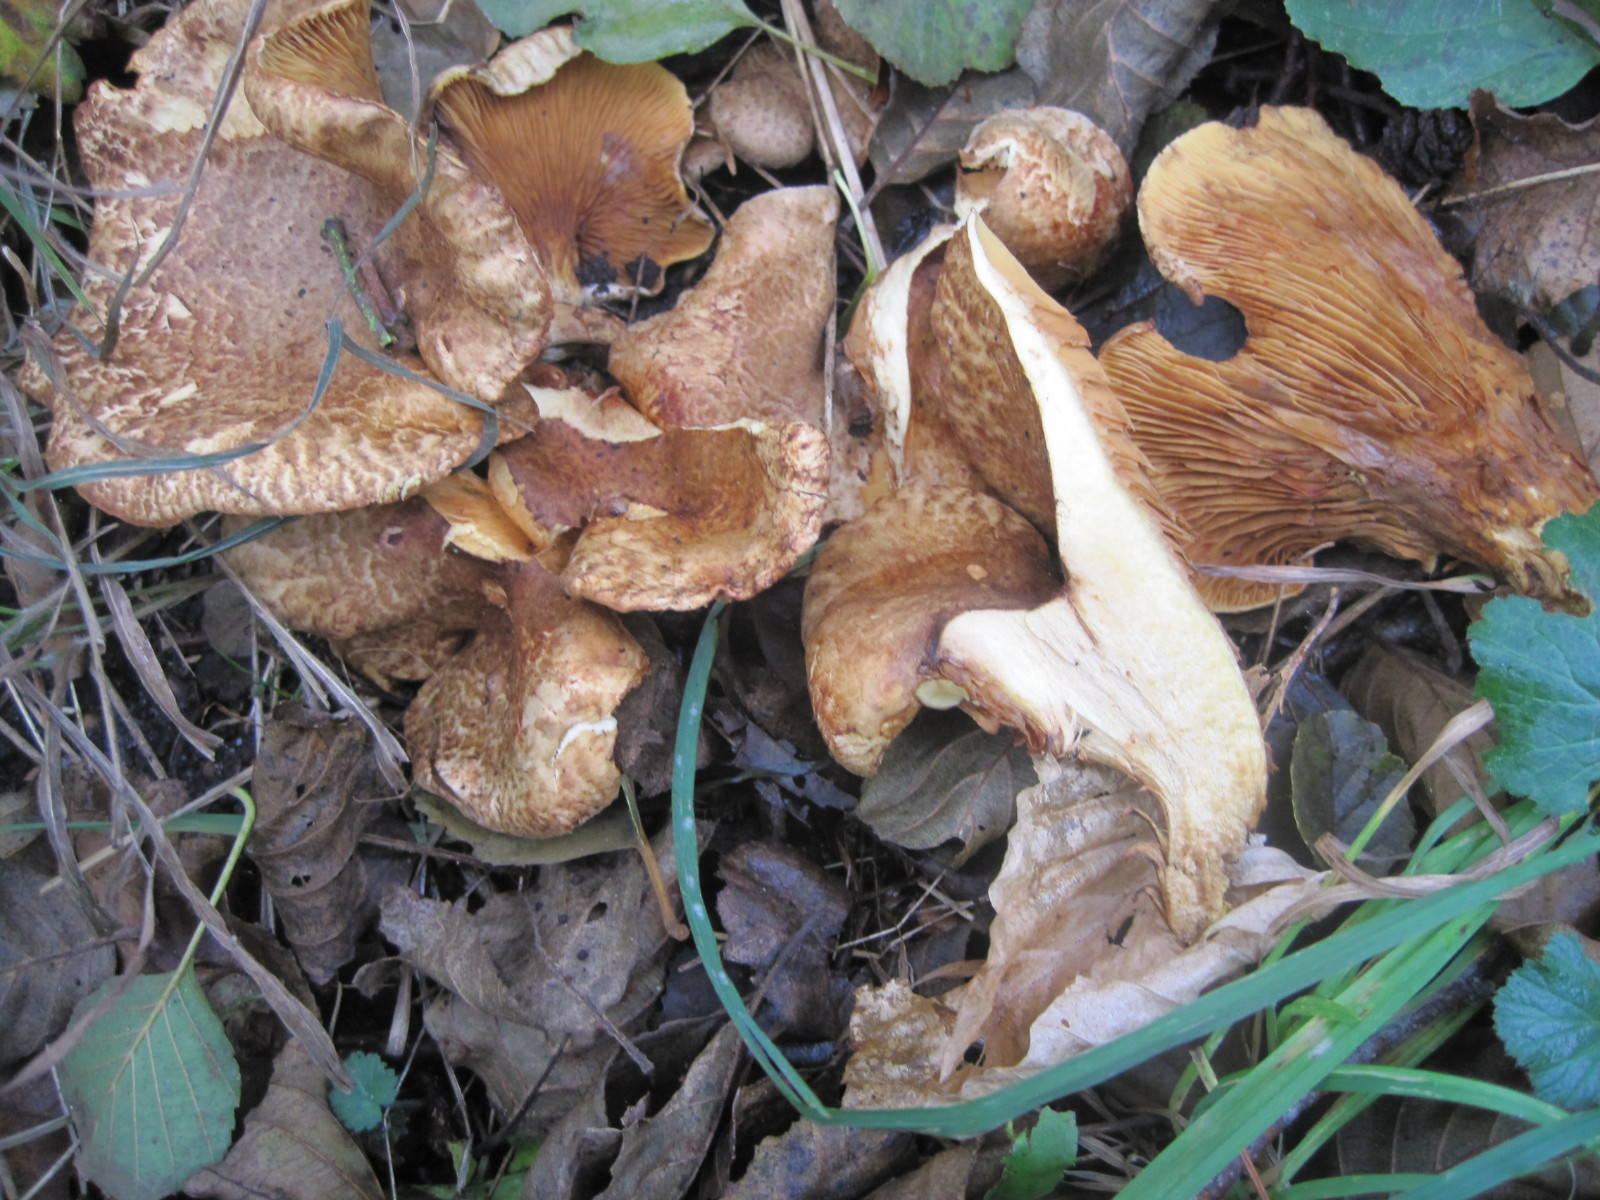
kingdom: Fungi
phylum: Basidiomycota
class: Agaricomycetes
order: Boletales
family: Paxillaceae
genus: Paxillus
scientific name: Paxillus rubicundulus
